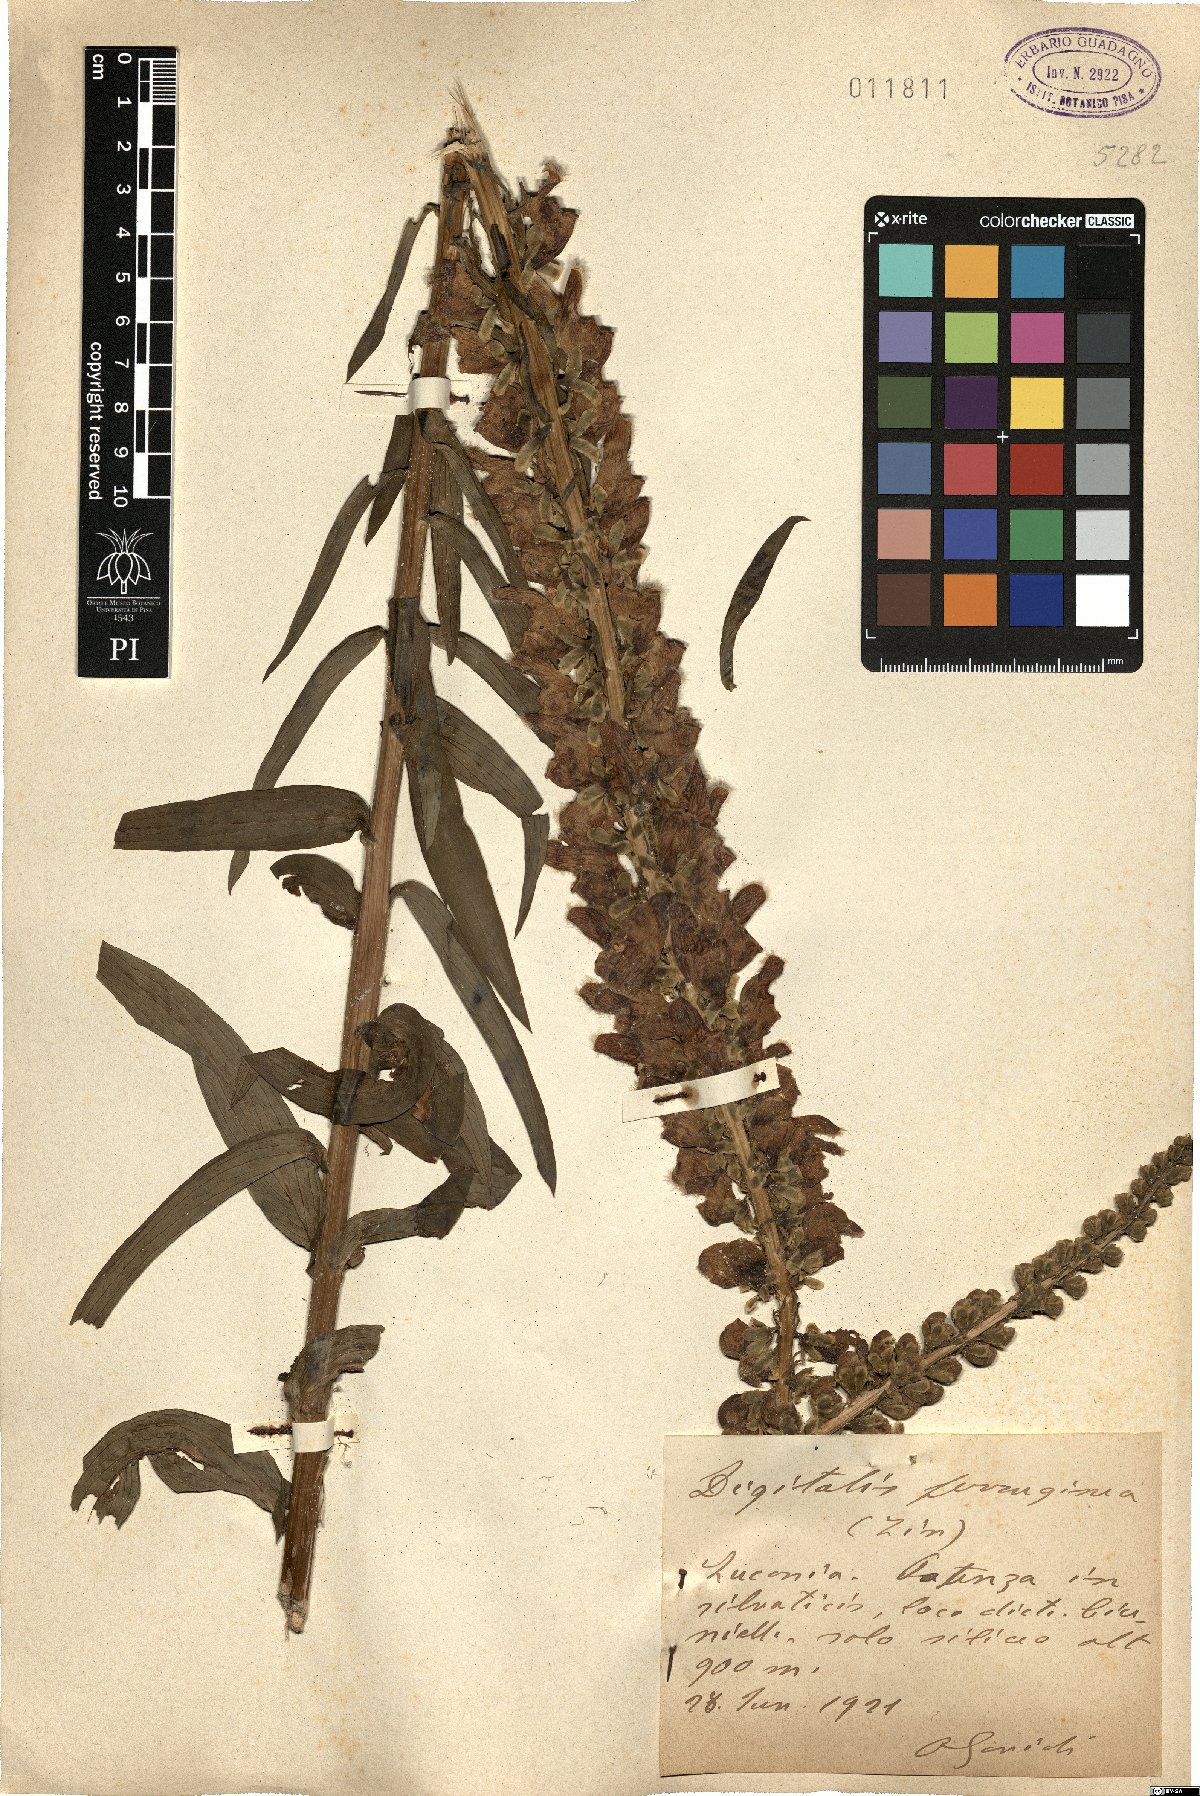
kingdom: Plantae
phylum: Tracheophyta
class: Magnoliopsida
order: Lamiales
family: Plantaginaceae
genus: Digitalis
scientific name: Digitalis ferruginea
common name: Rusty foxglove
